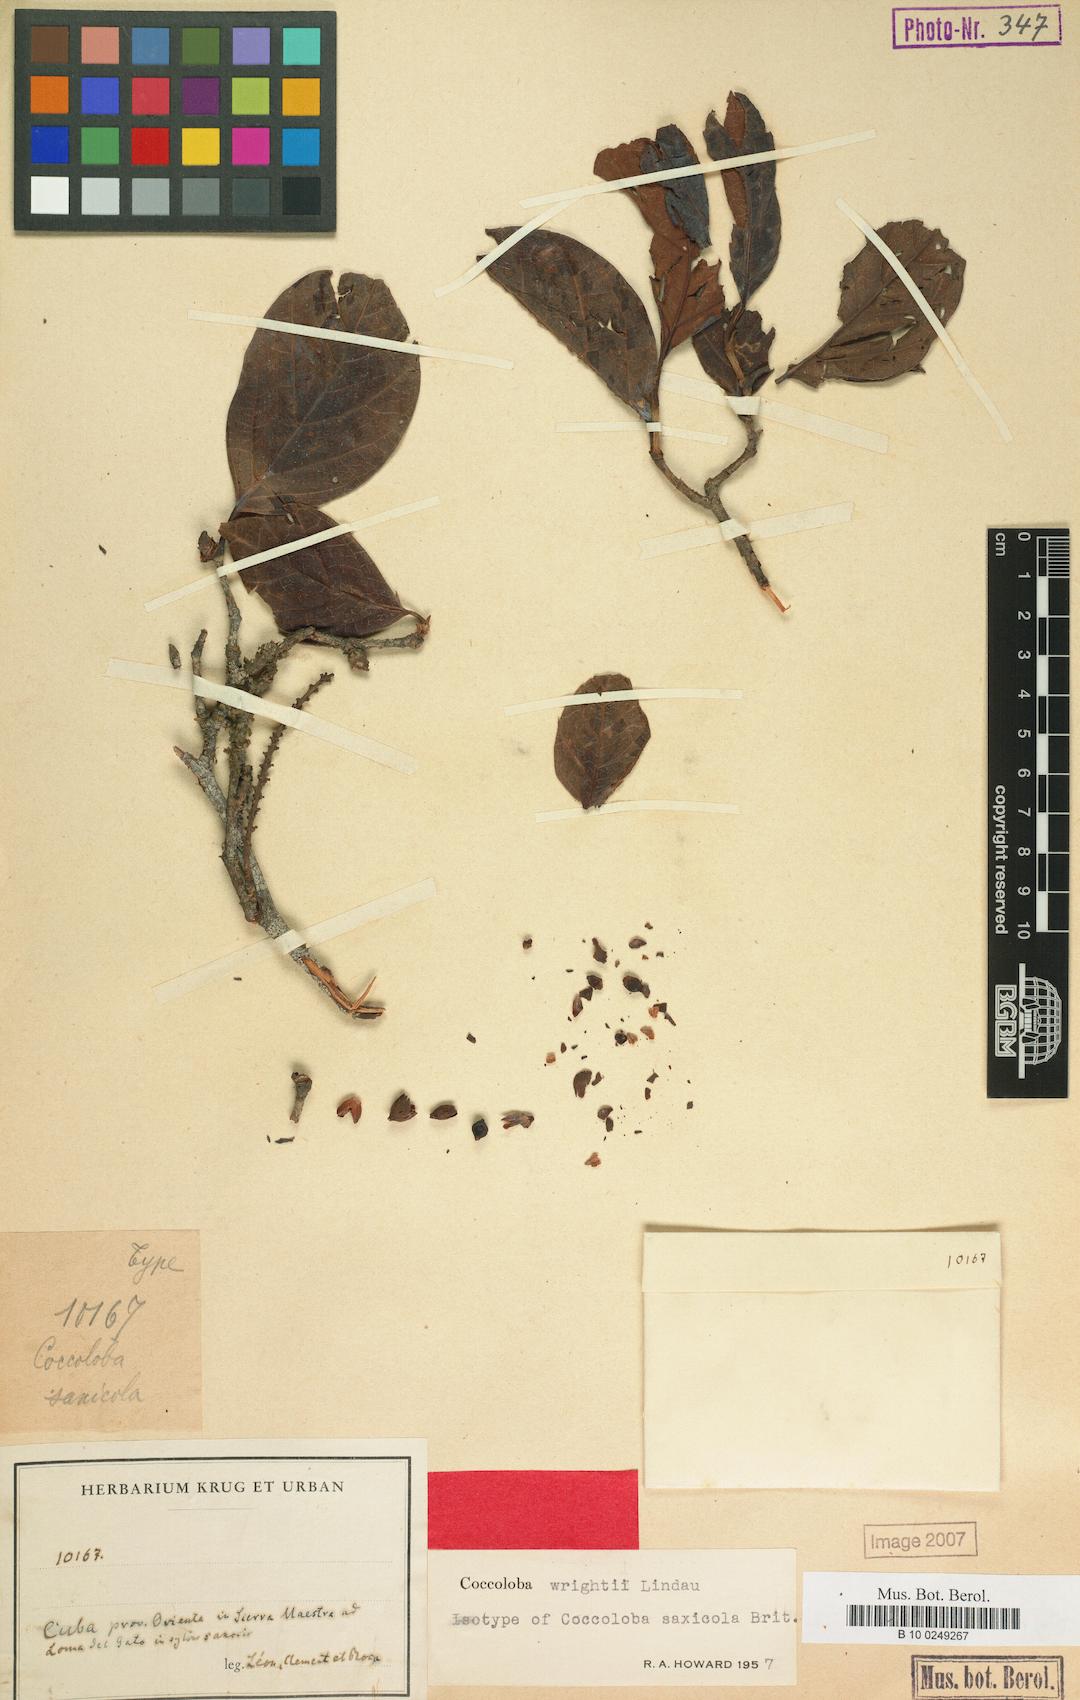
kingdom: Plantae
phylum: Tracheophyta
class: Magnoliopsida
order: Caryophyllales
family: Polygonaceae
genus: Coccoloba
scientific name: Coccoloba wrightii
